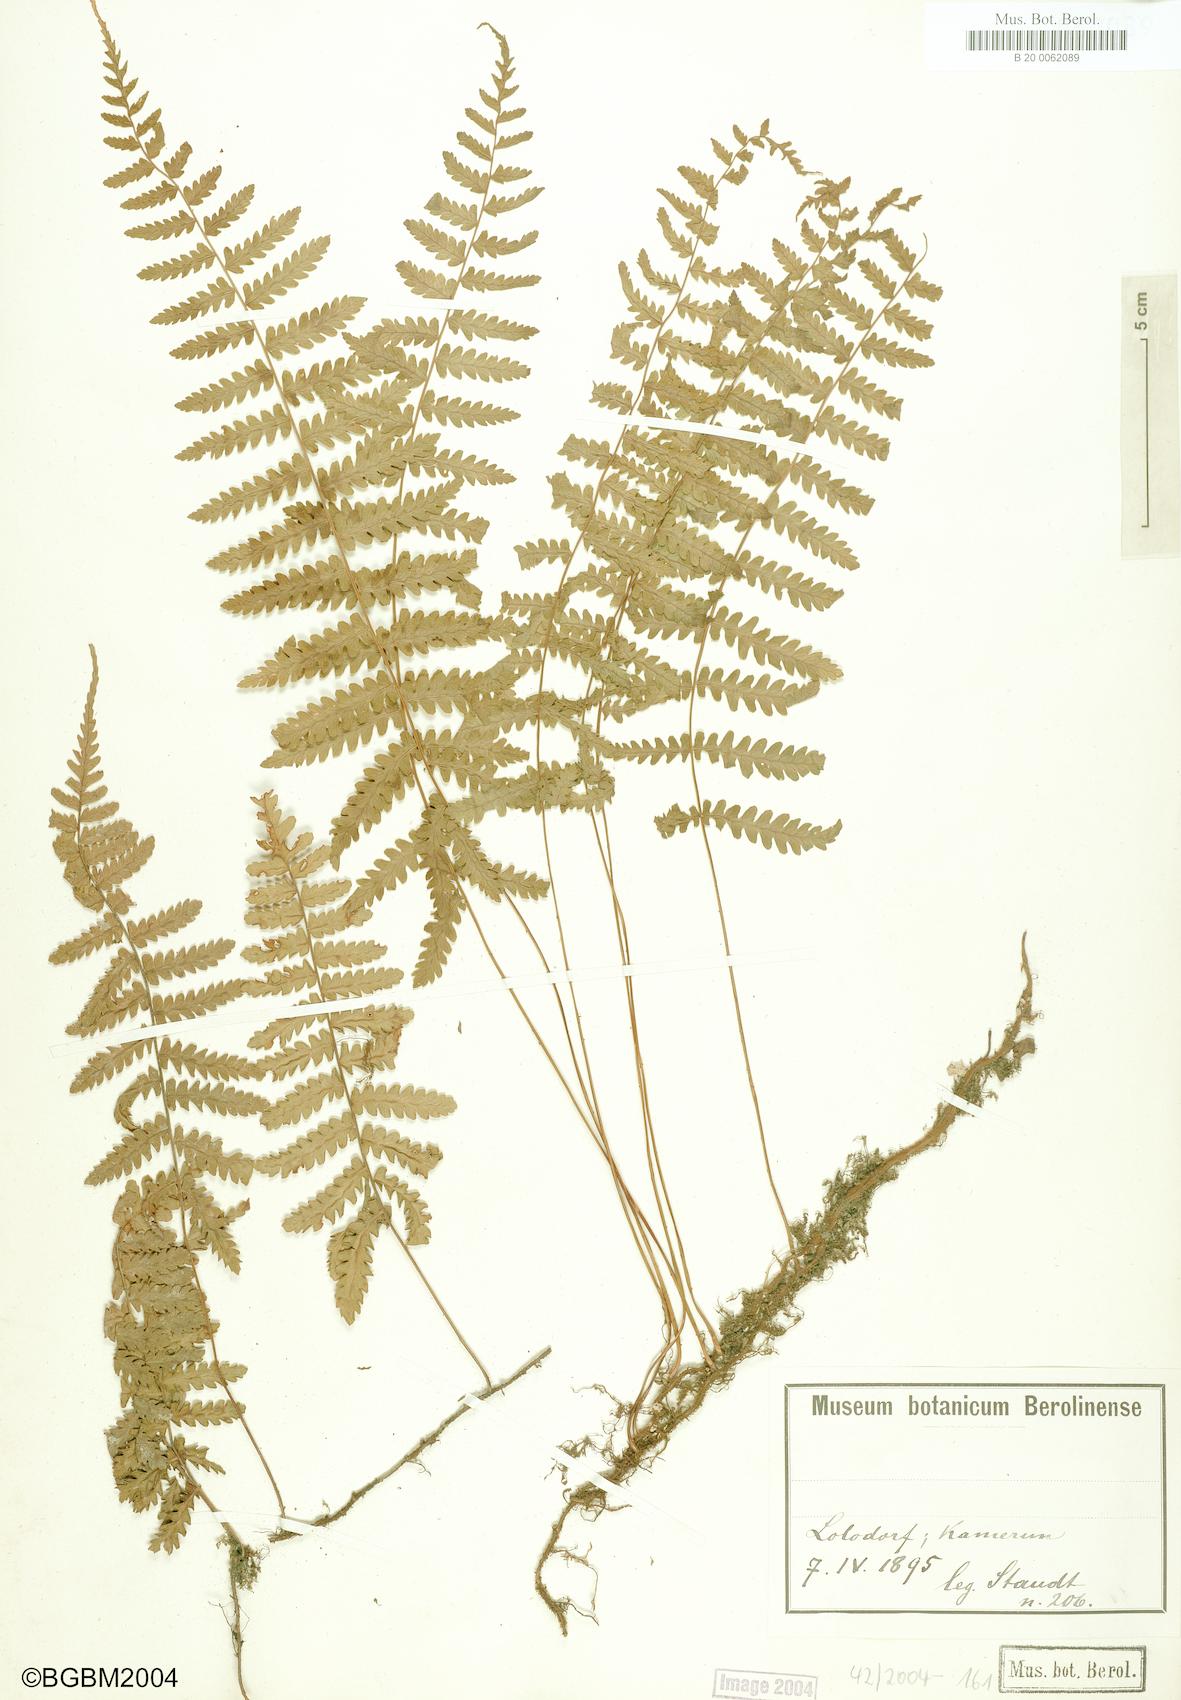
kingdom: Plantae
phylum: Tracheophyta
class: Polypodiopsida
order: Polypodiales
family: Tectariaceae
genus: Arthropteris
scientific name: Arthropteris orientalis
